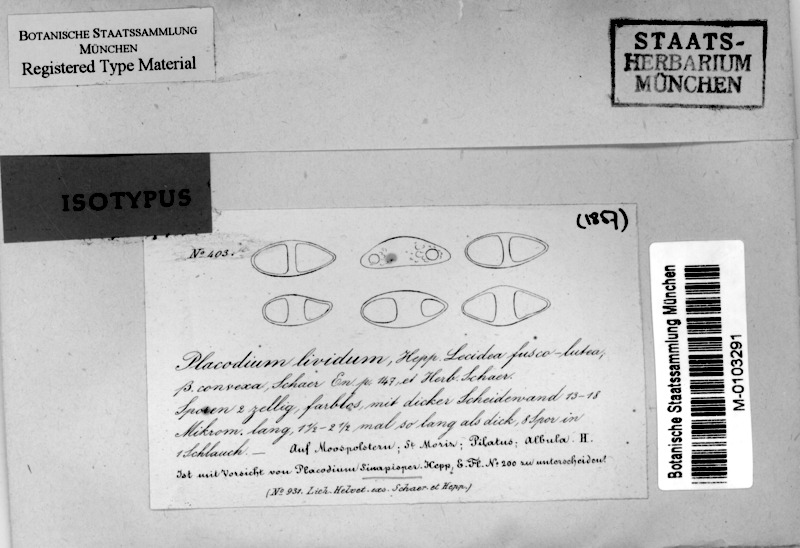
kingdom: Fungi
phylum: Ascomycota
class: Lecanoromycetes
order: Teloschistales
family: Teloschistaceae
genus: Caloplaca
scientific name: Caloplaca livida
